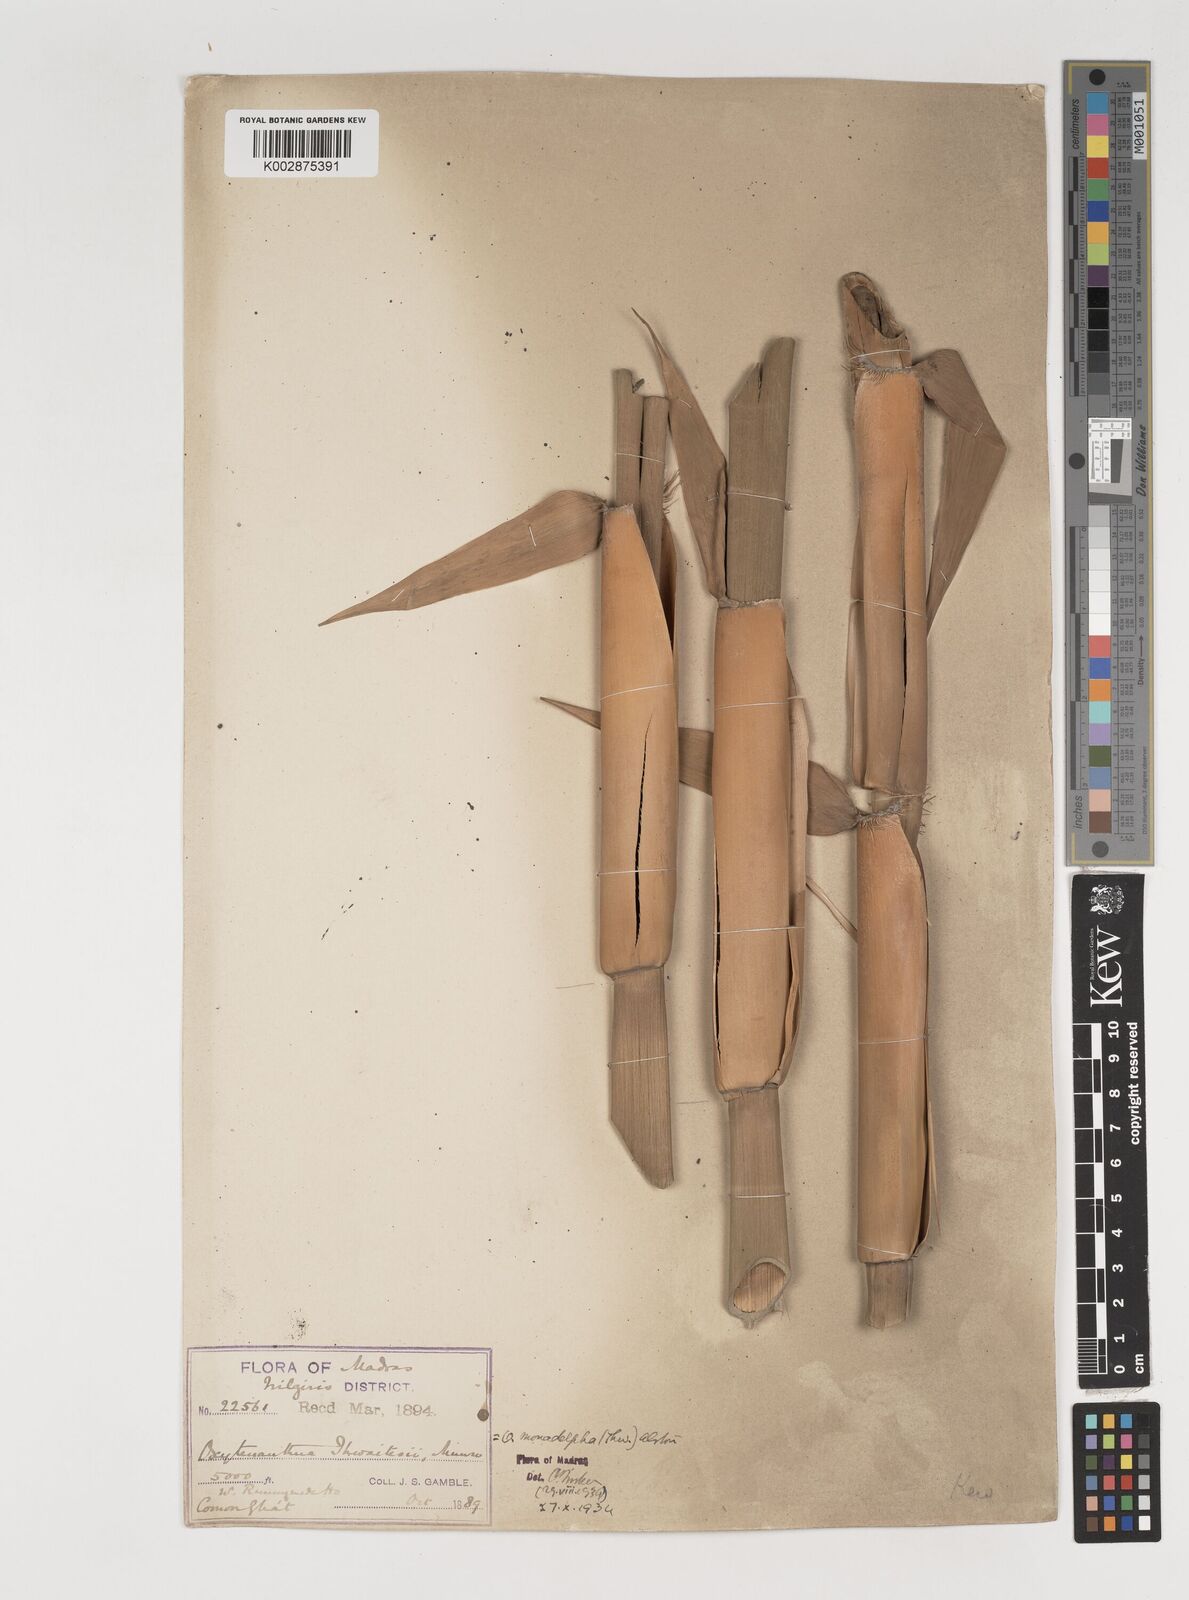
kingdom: Plantae
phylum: Tracheophyta
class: Liliopsida
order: Poales
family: Poaceae
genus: Pseudoxytenanthera
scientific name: Pseudoxytenanthera monadelpha
